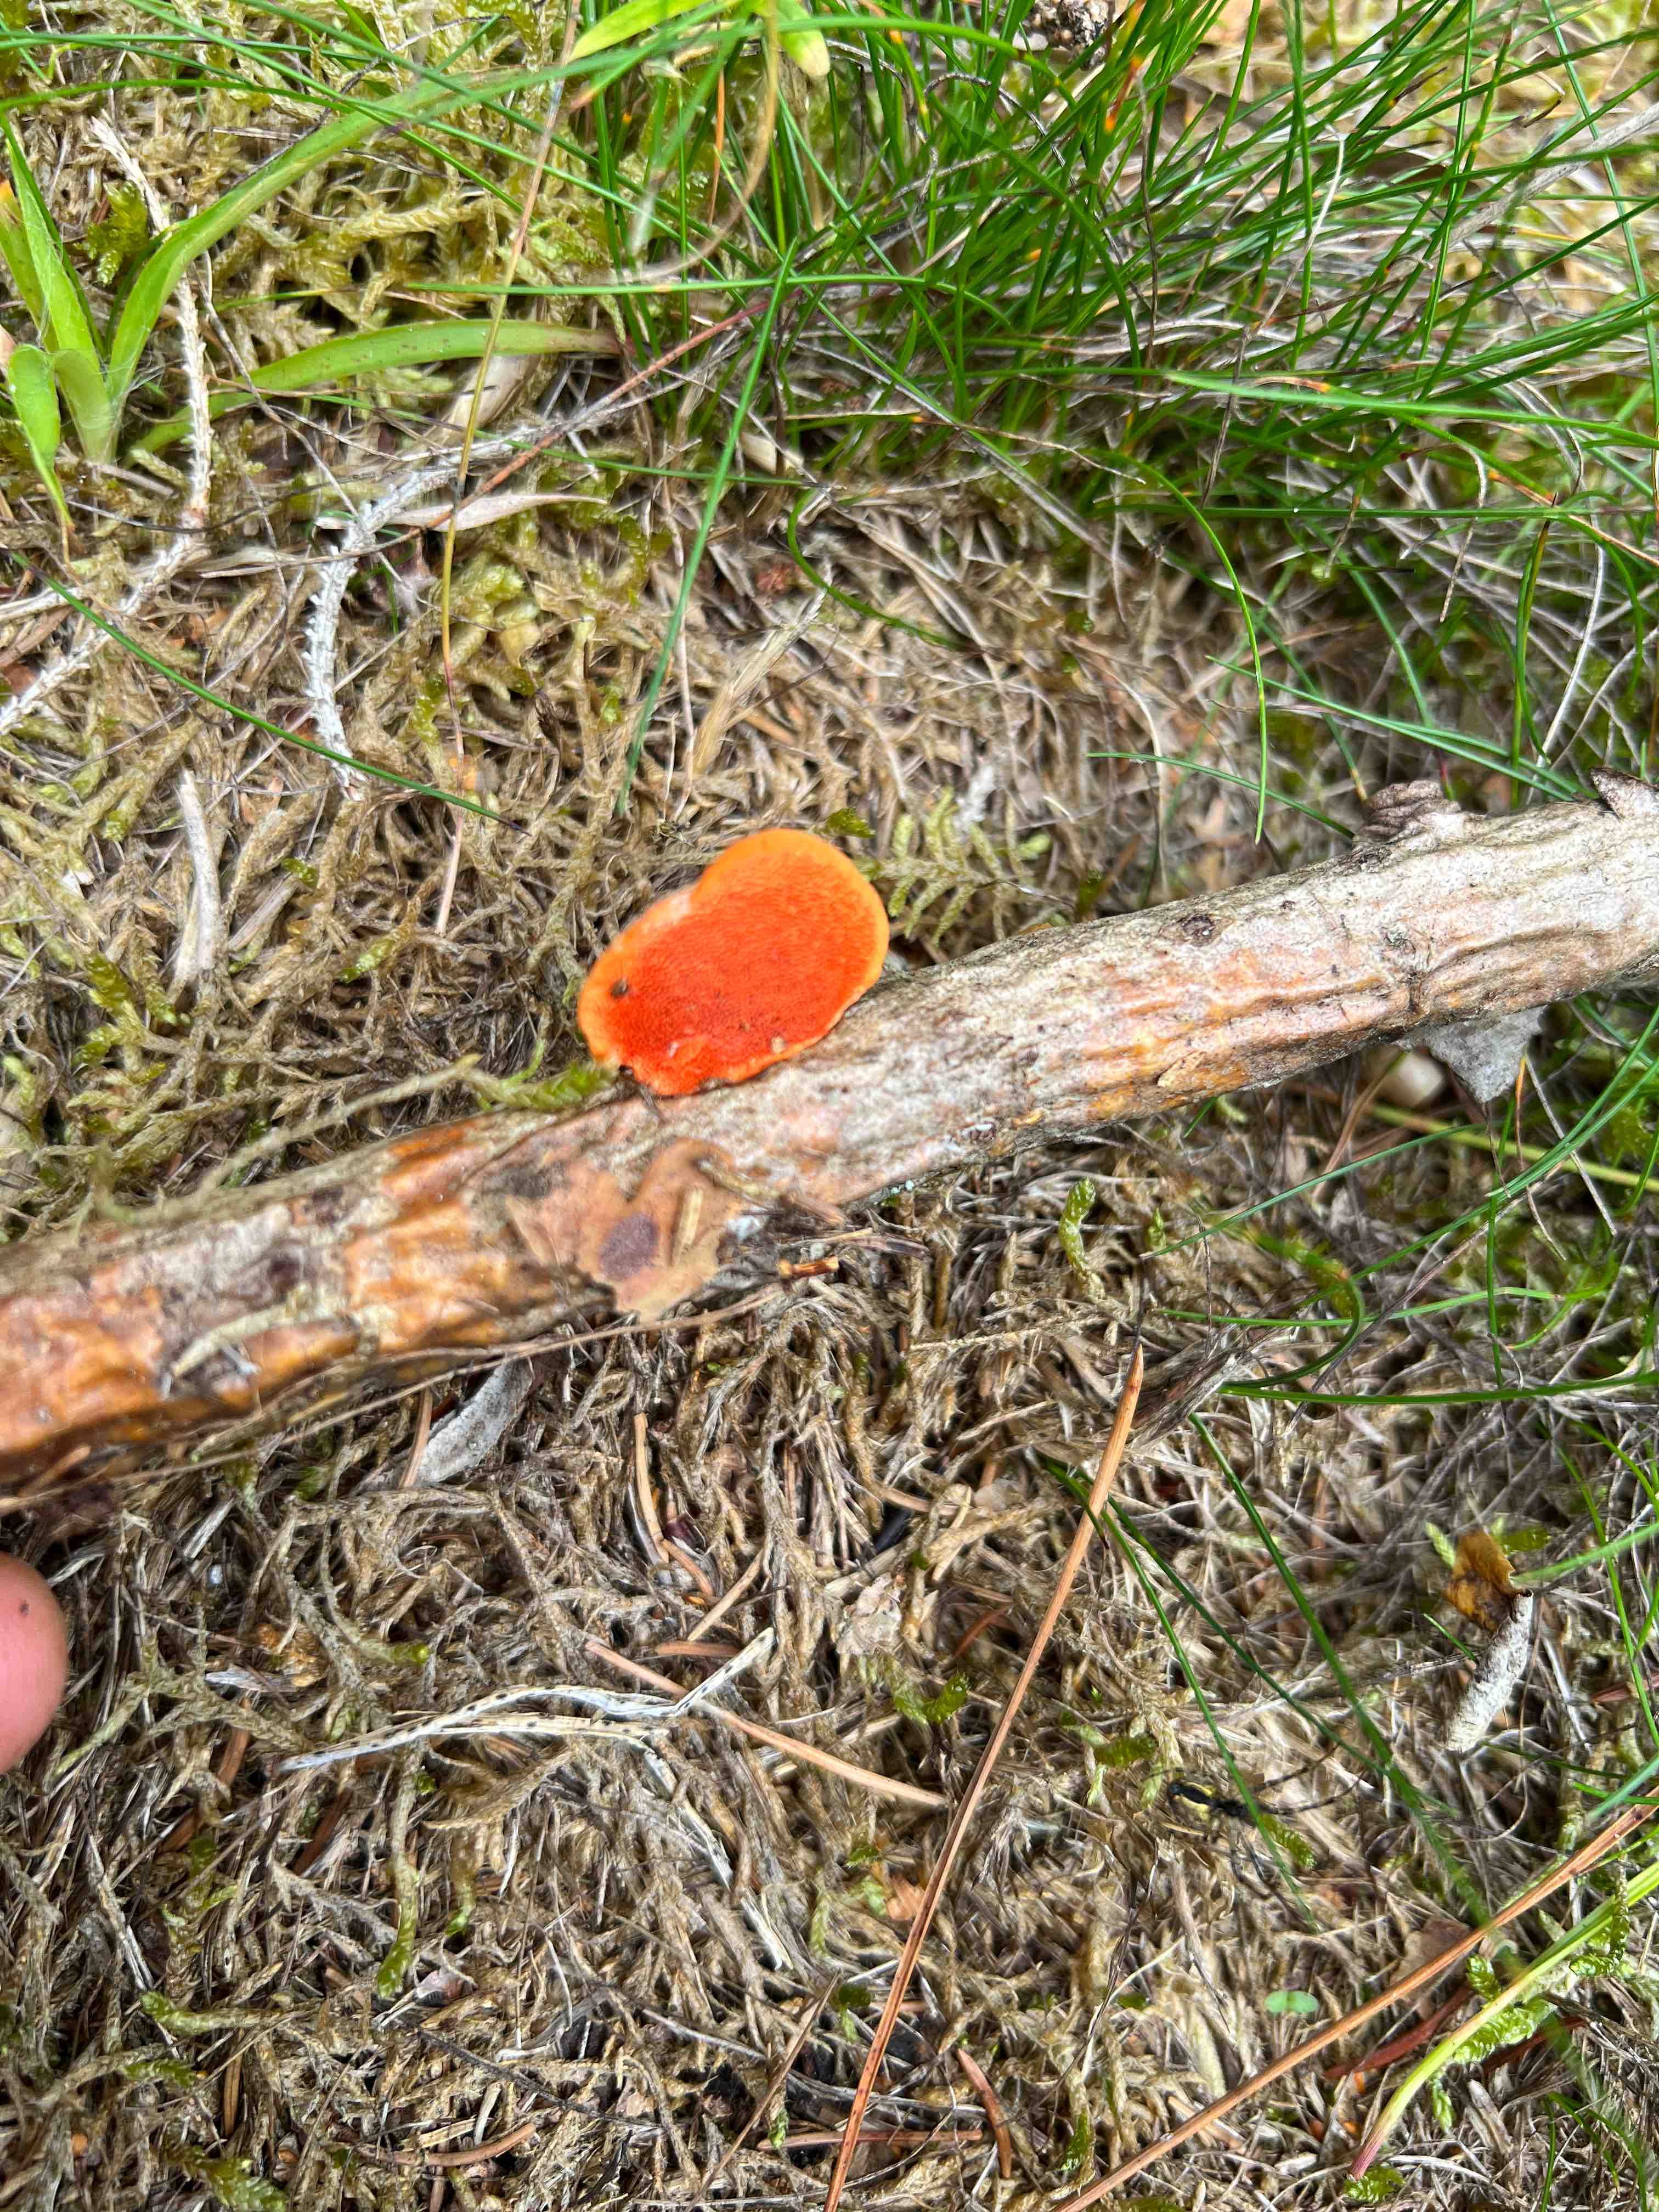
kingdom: Fungi
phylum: Basidiomycota
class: Agaricomycetes
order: Polyporales
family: Polyporaceae
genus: Trametes
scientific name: Trametes cinnabarina
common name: cinnoberporesvamp
